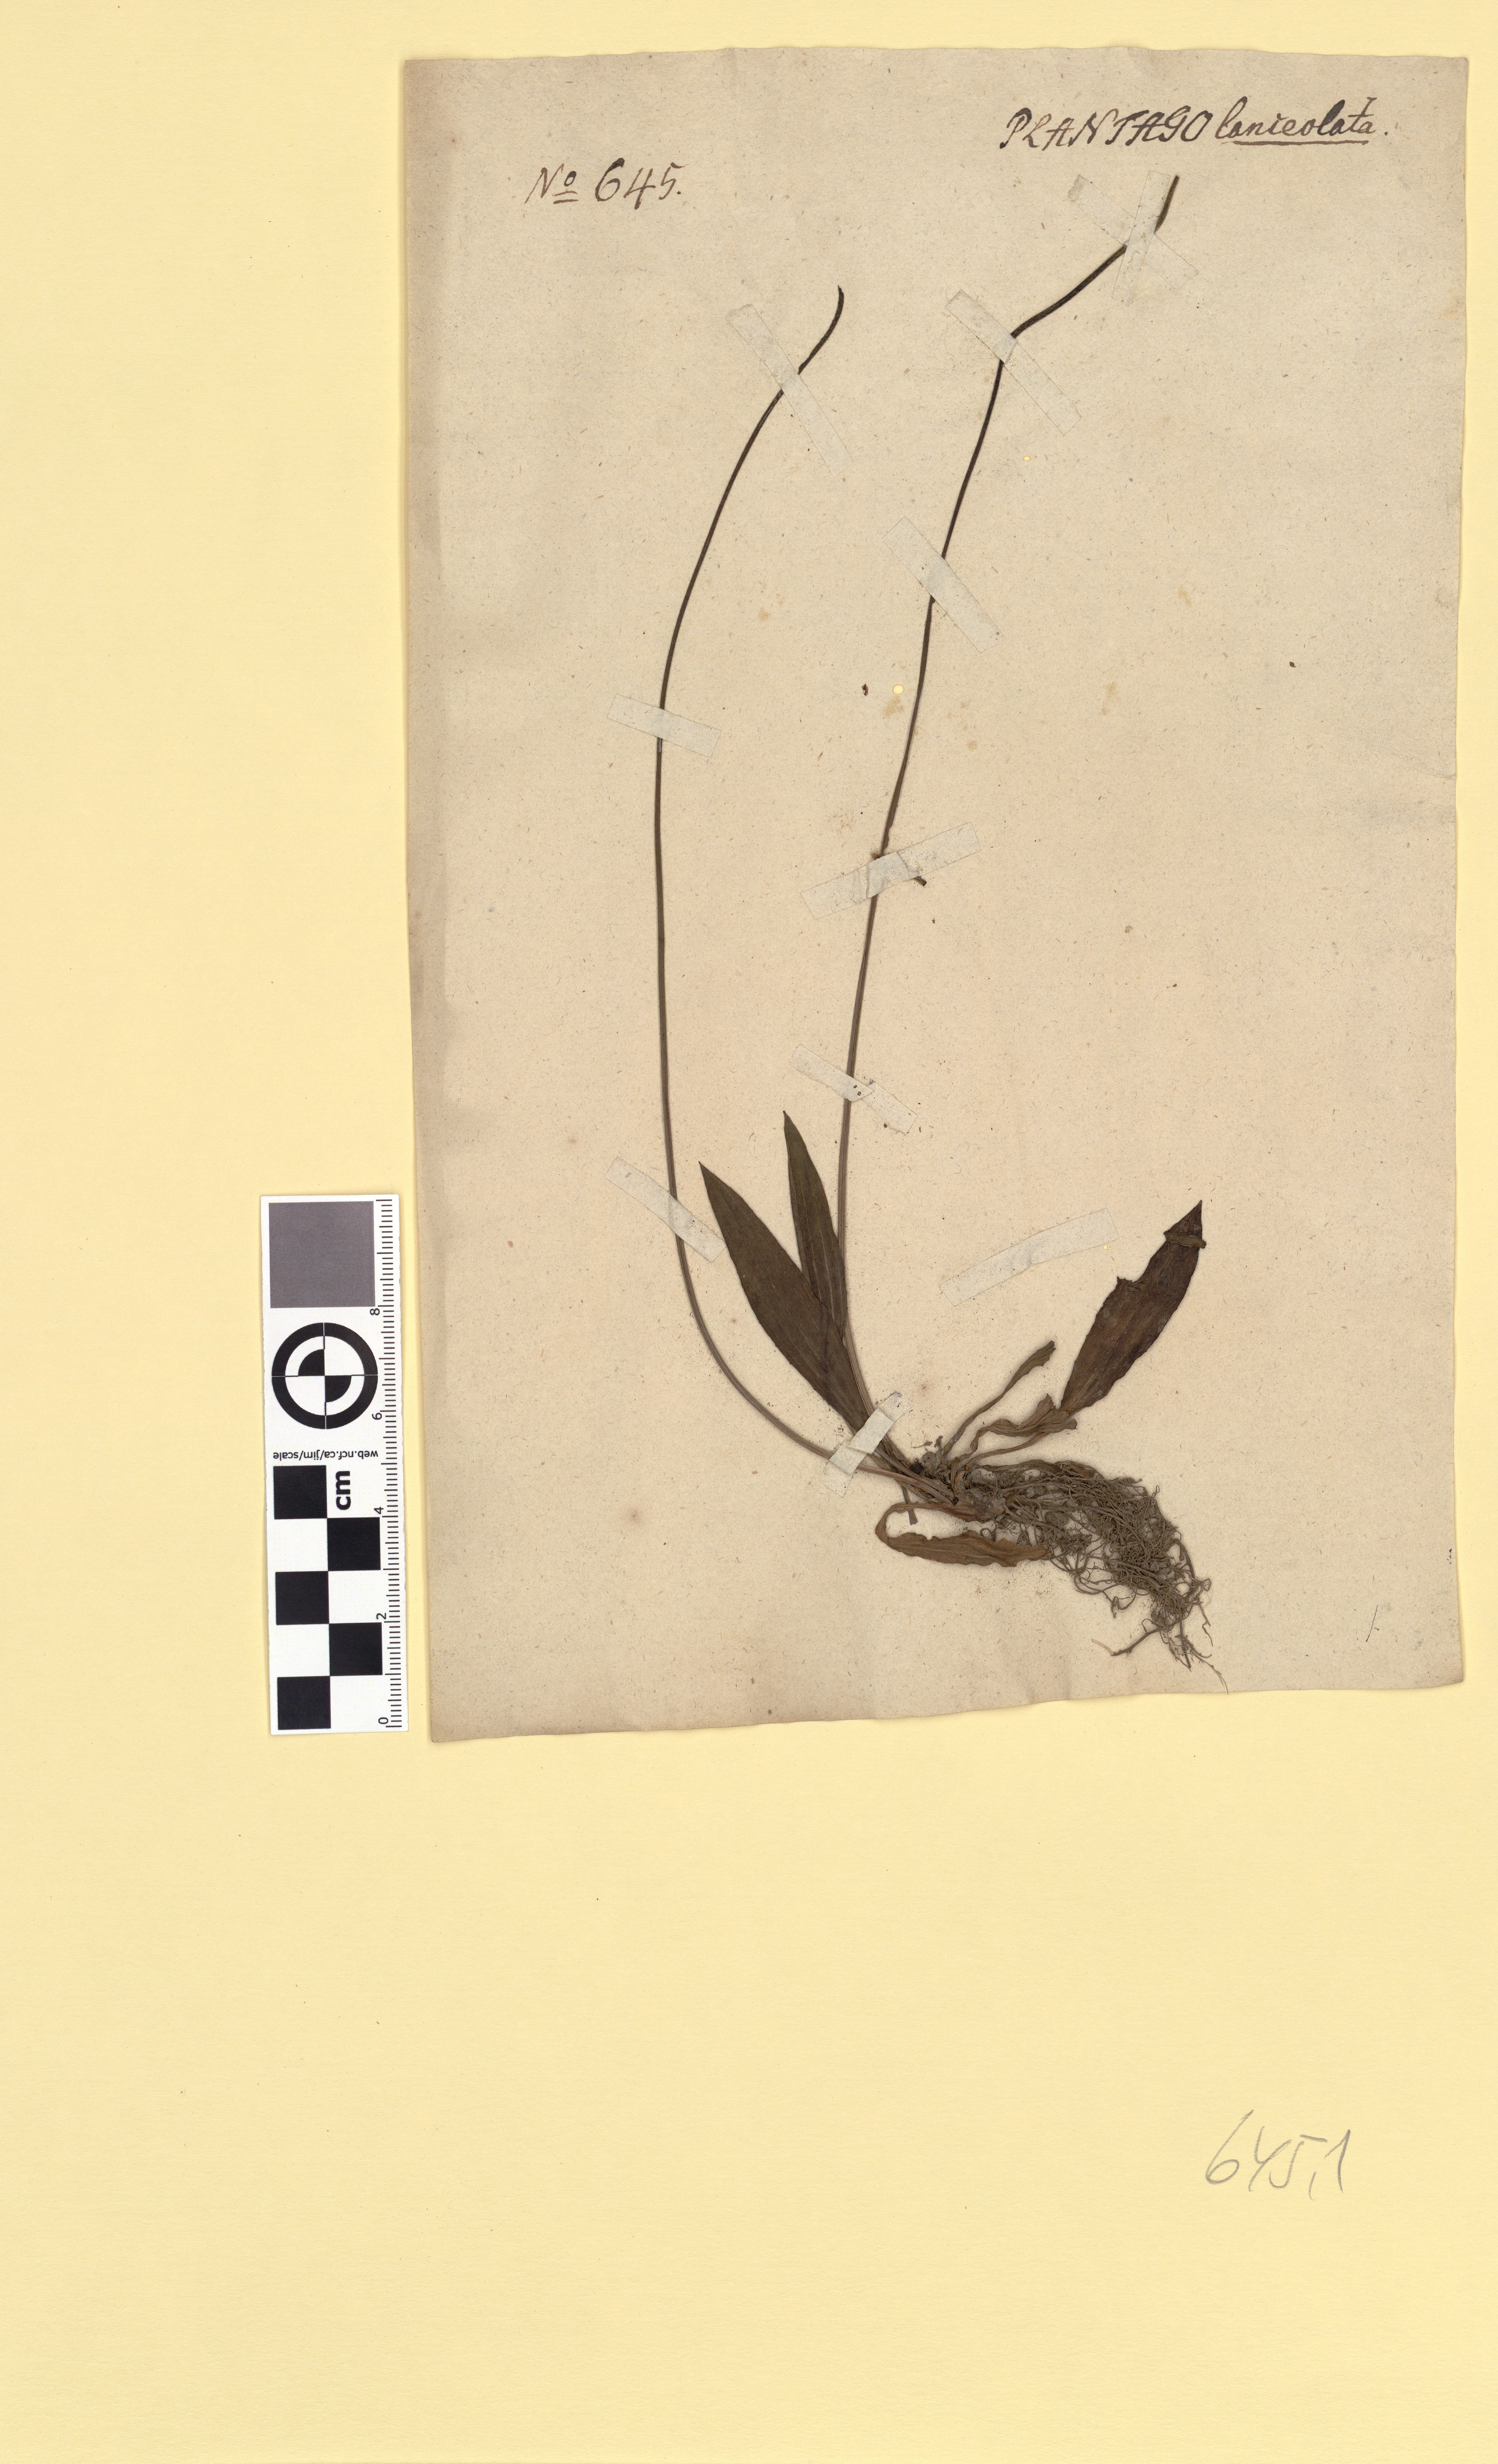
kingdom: Plantae
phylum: Tracheophyta
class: Magnoliopsida
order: Lamiales
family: Plantaginaceae
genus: Plantago
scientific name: Plantago lanceolata
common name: Ribwort plantain
